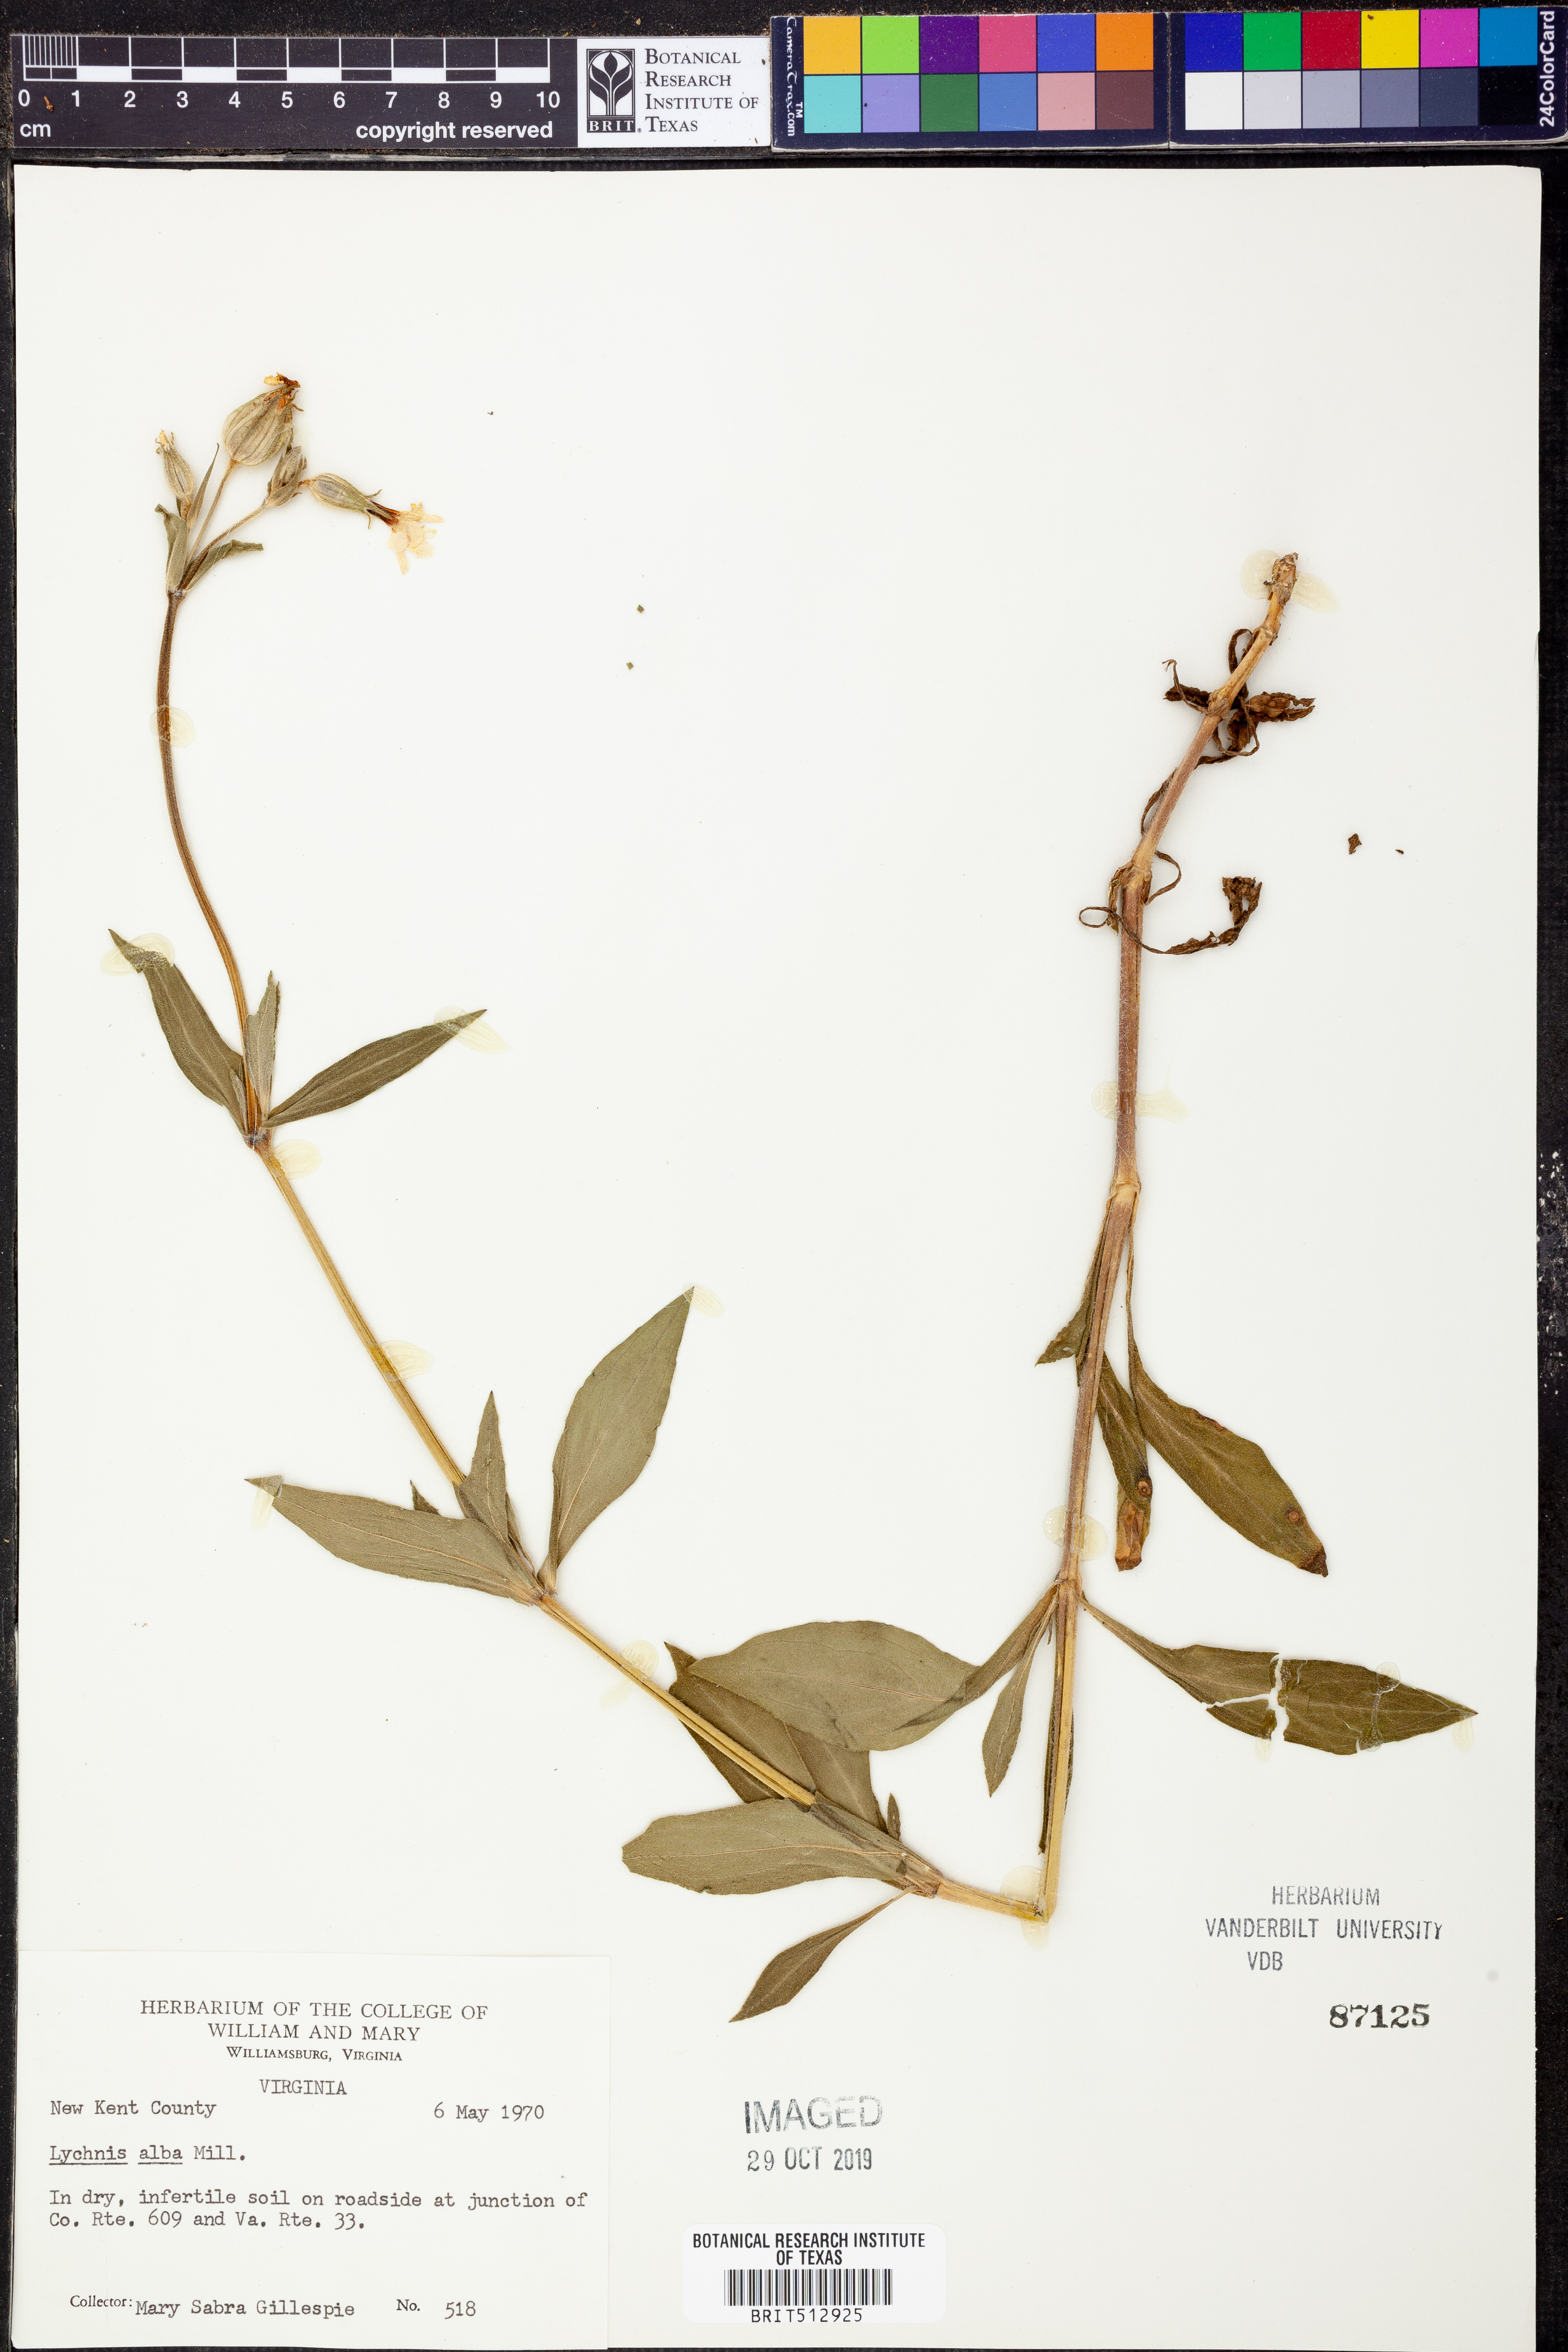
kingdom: Plantae
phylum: Tracheophyta
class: Magnoliopsida
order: Caryophyllales
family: Caryophyllaceae
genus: Silene
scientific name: Silene latifolia
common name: White campion
